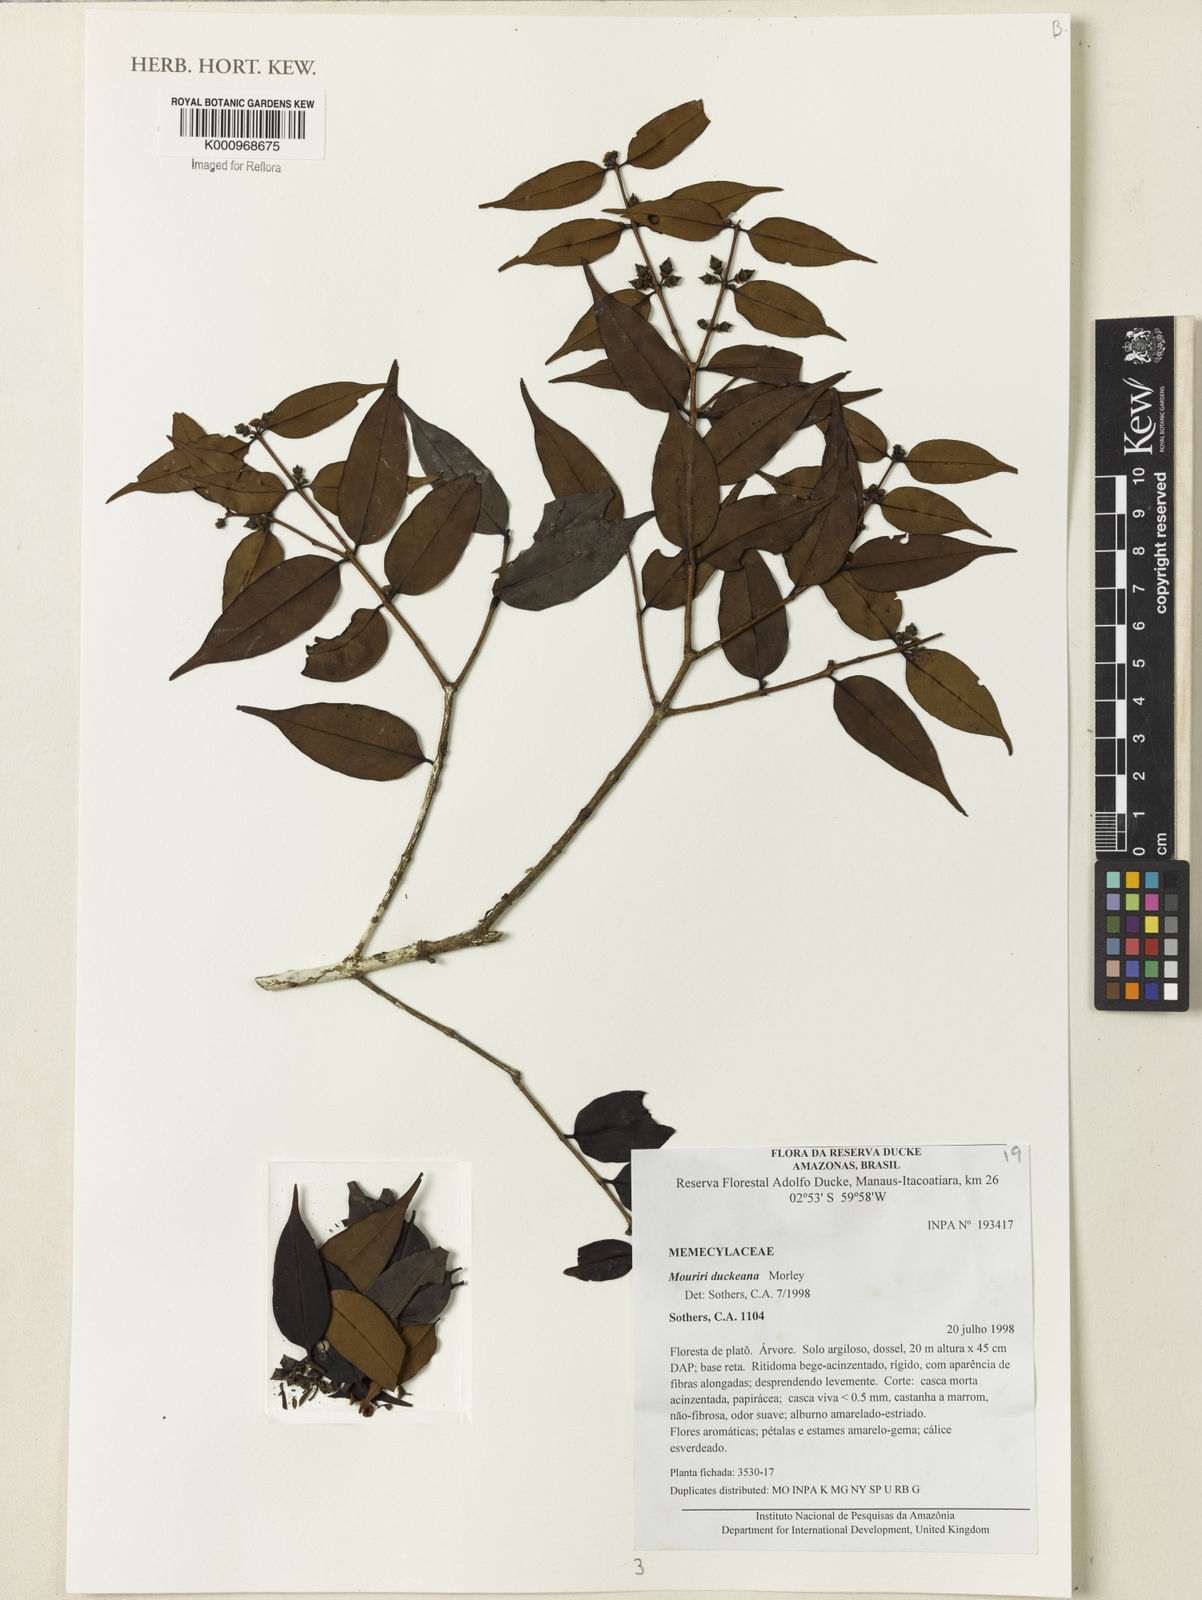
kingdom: Plantae
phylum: Tracheophyta
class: Magnoliopsida
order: Myrtales
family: Melastomataceae
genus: Mouriri
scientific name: Mouriri duckeana
